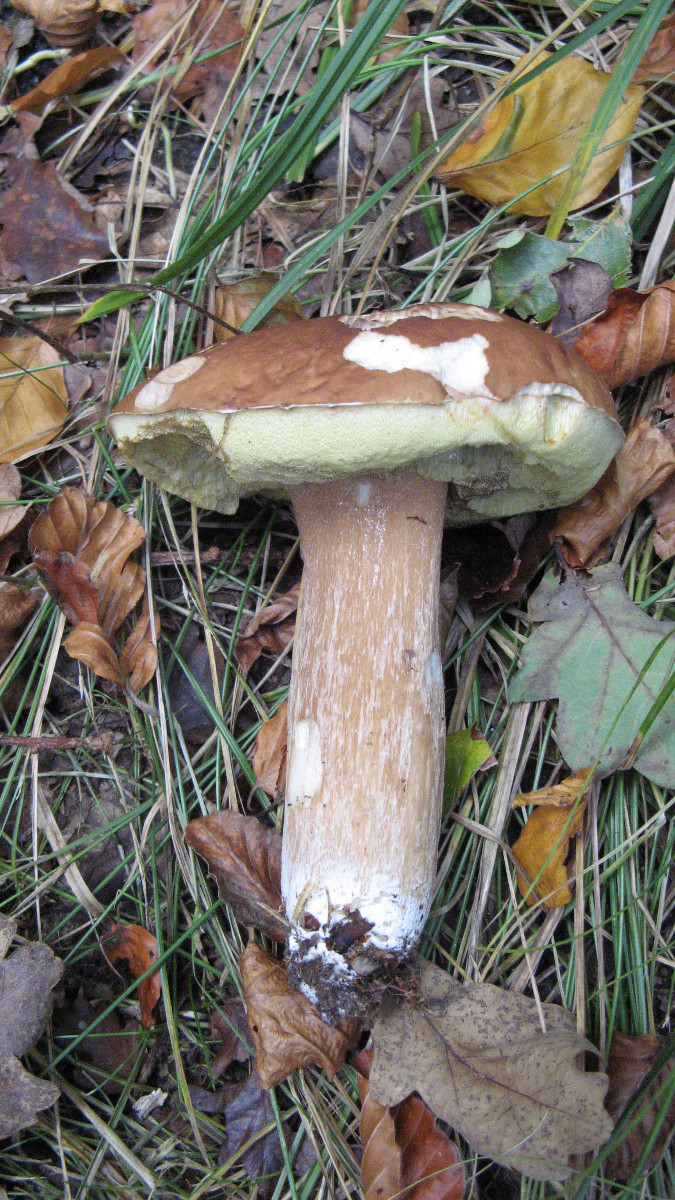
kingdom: Fungi
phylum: Basidiomycota
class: Agaricomycetes
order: Boletales
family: Boletaceae
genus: Boletus
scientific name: Boletus reticulatus
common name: sommer-rørhat
